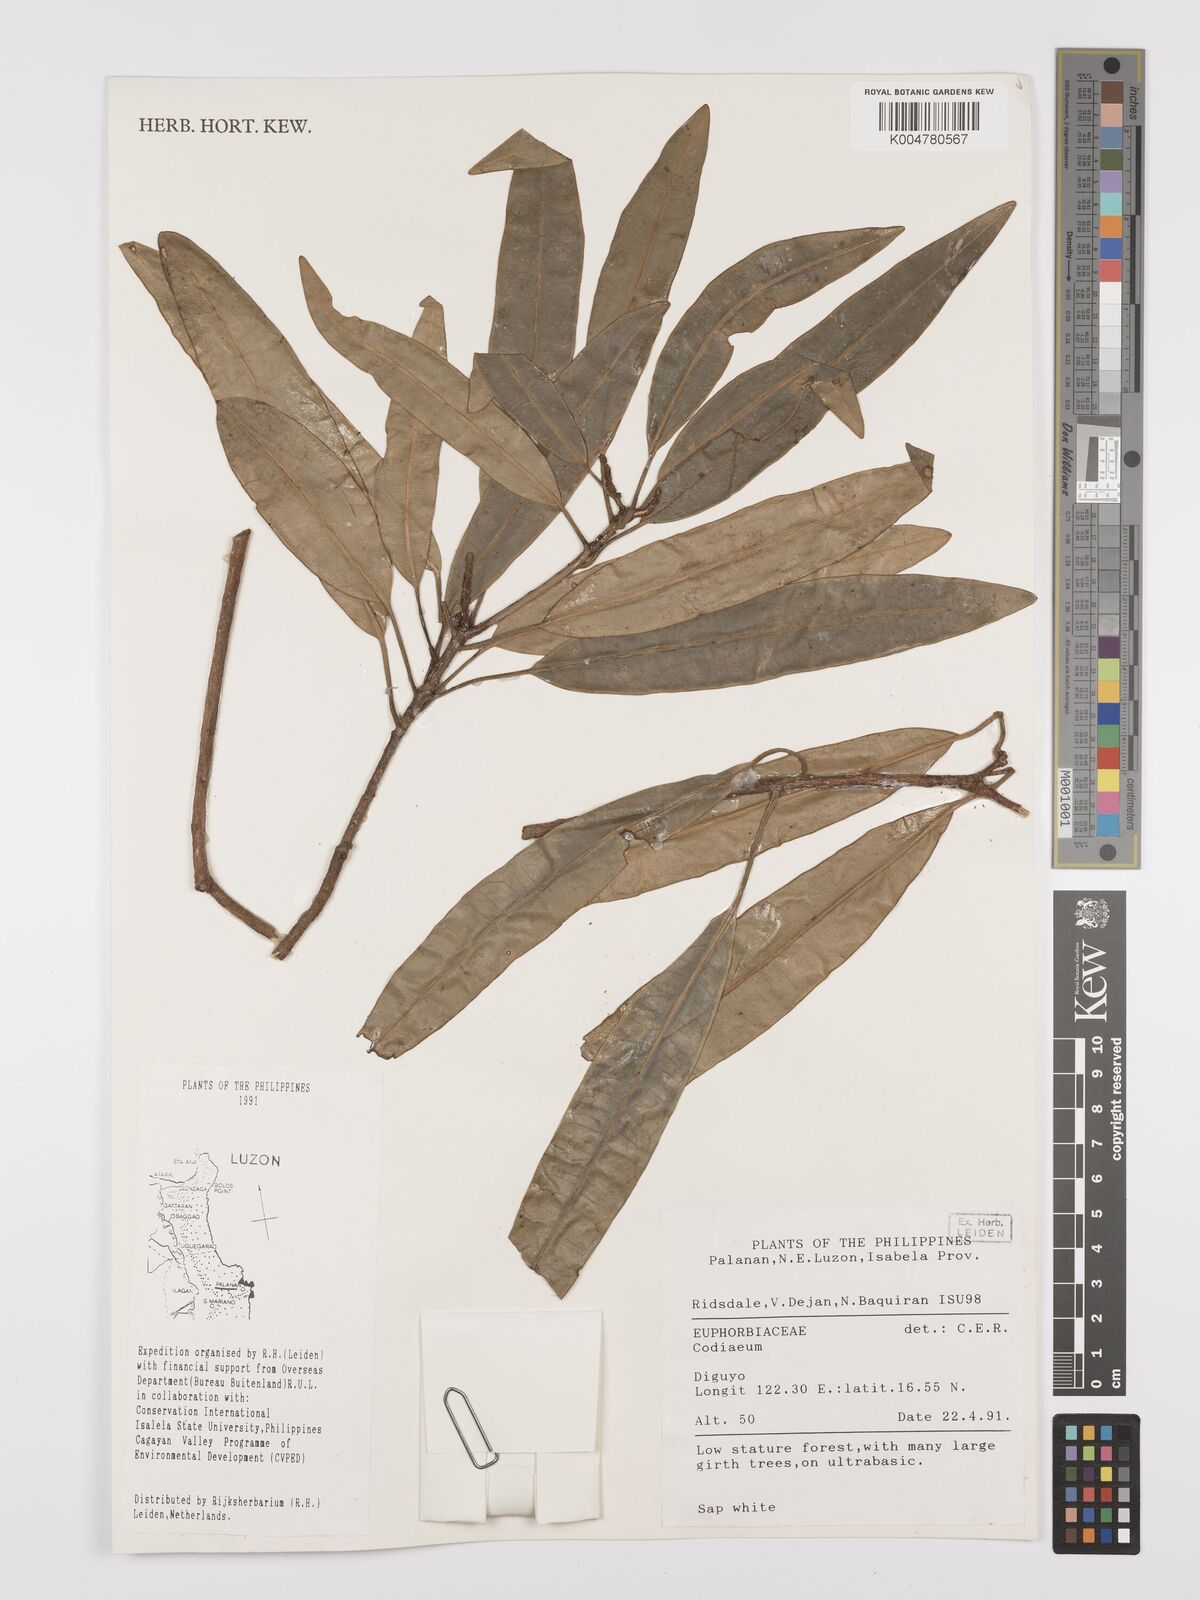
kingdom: Plantae
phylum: Tracheophyta
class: Magnoliopsida
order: Malpighiales
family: Euphorbiaceae
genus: Codiaeum
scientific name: Codiaeum
